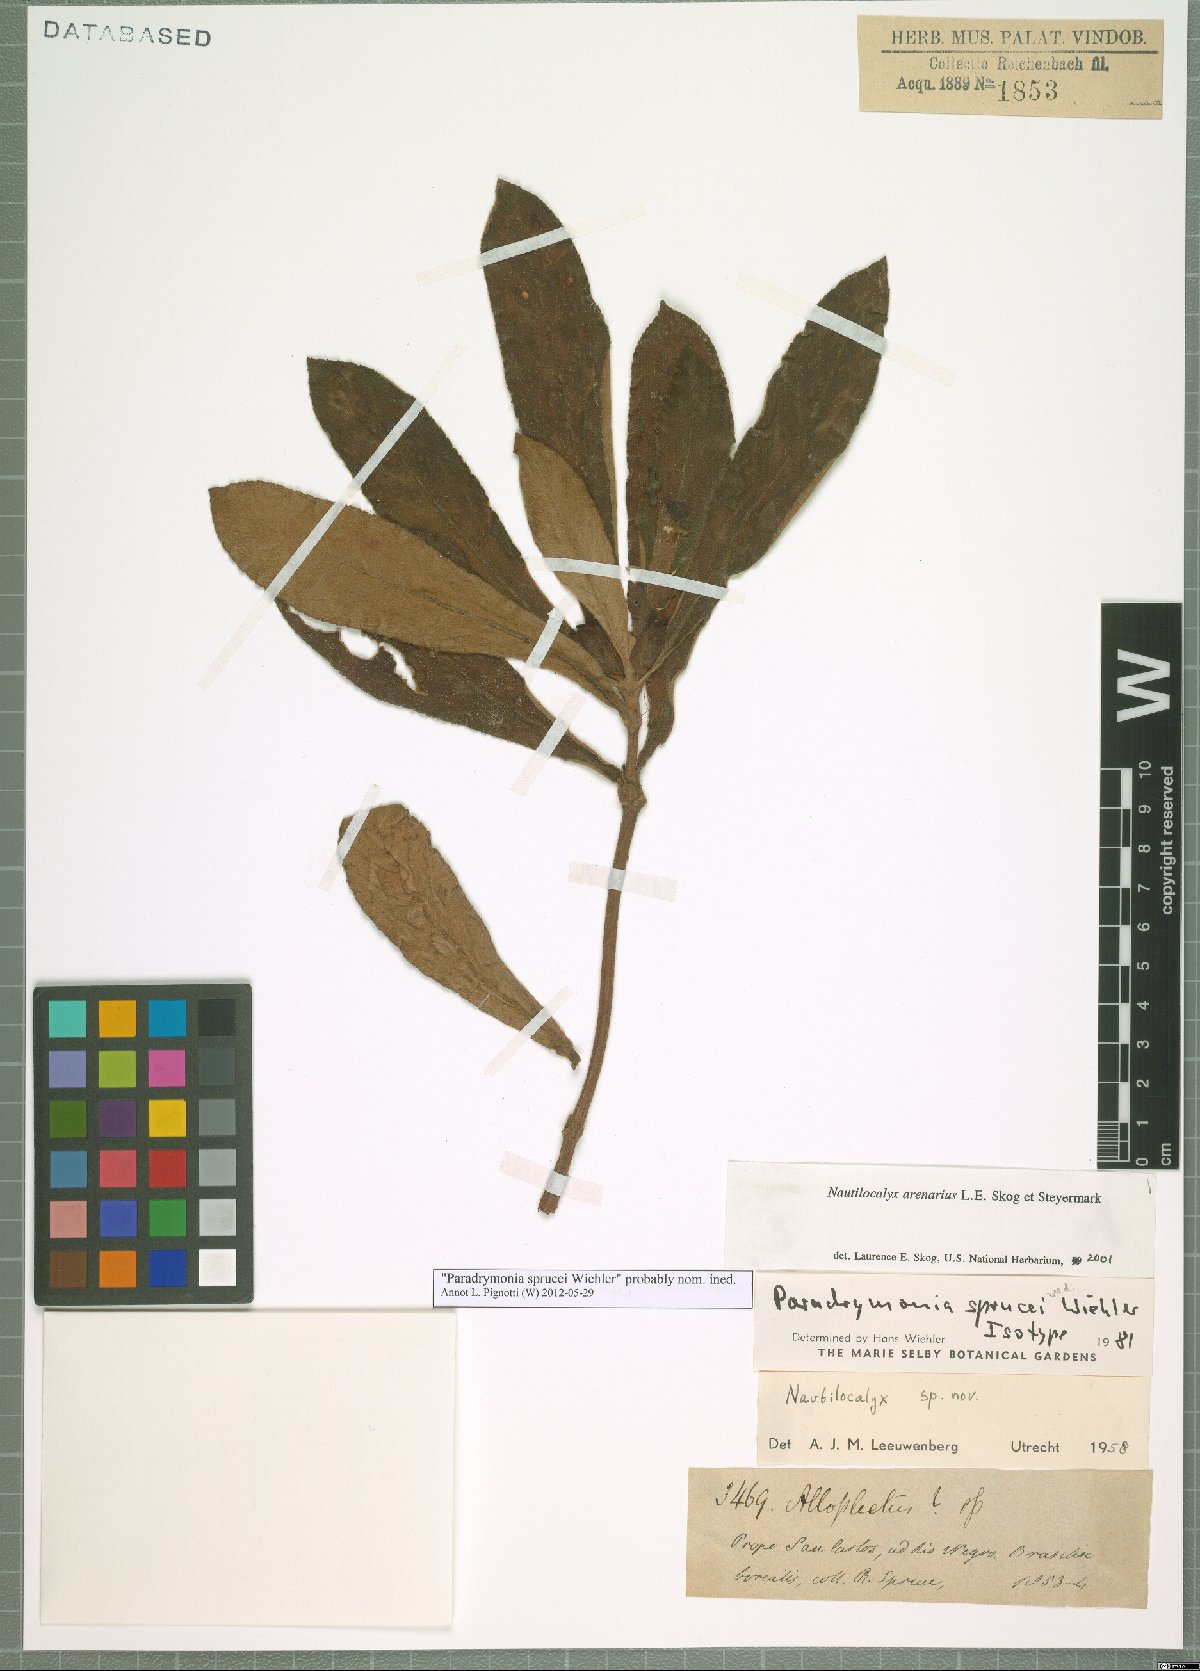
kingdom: Plantae
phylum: Tracheophyta
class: Magnoliopsida
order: Lamiales
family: Gesneriaceae
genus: Nautilocalyx
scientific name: Nautilocalyx arenarius
